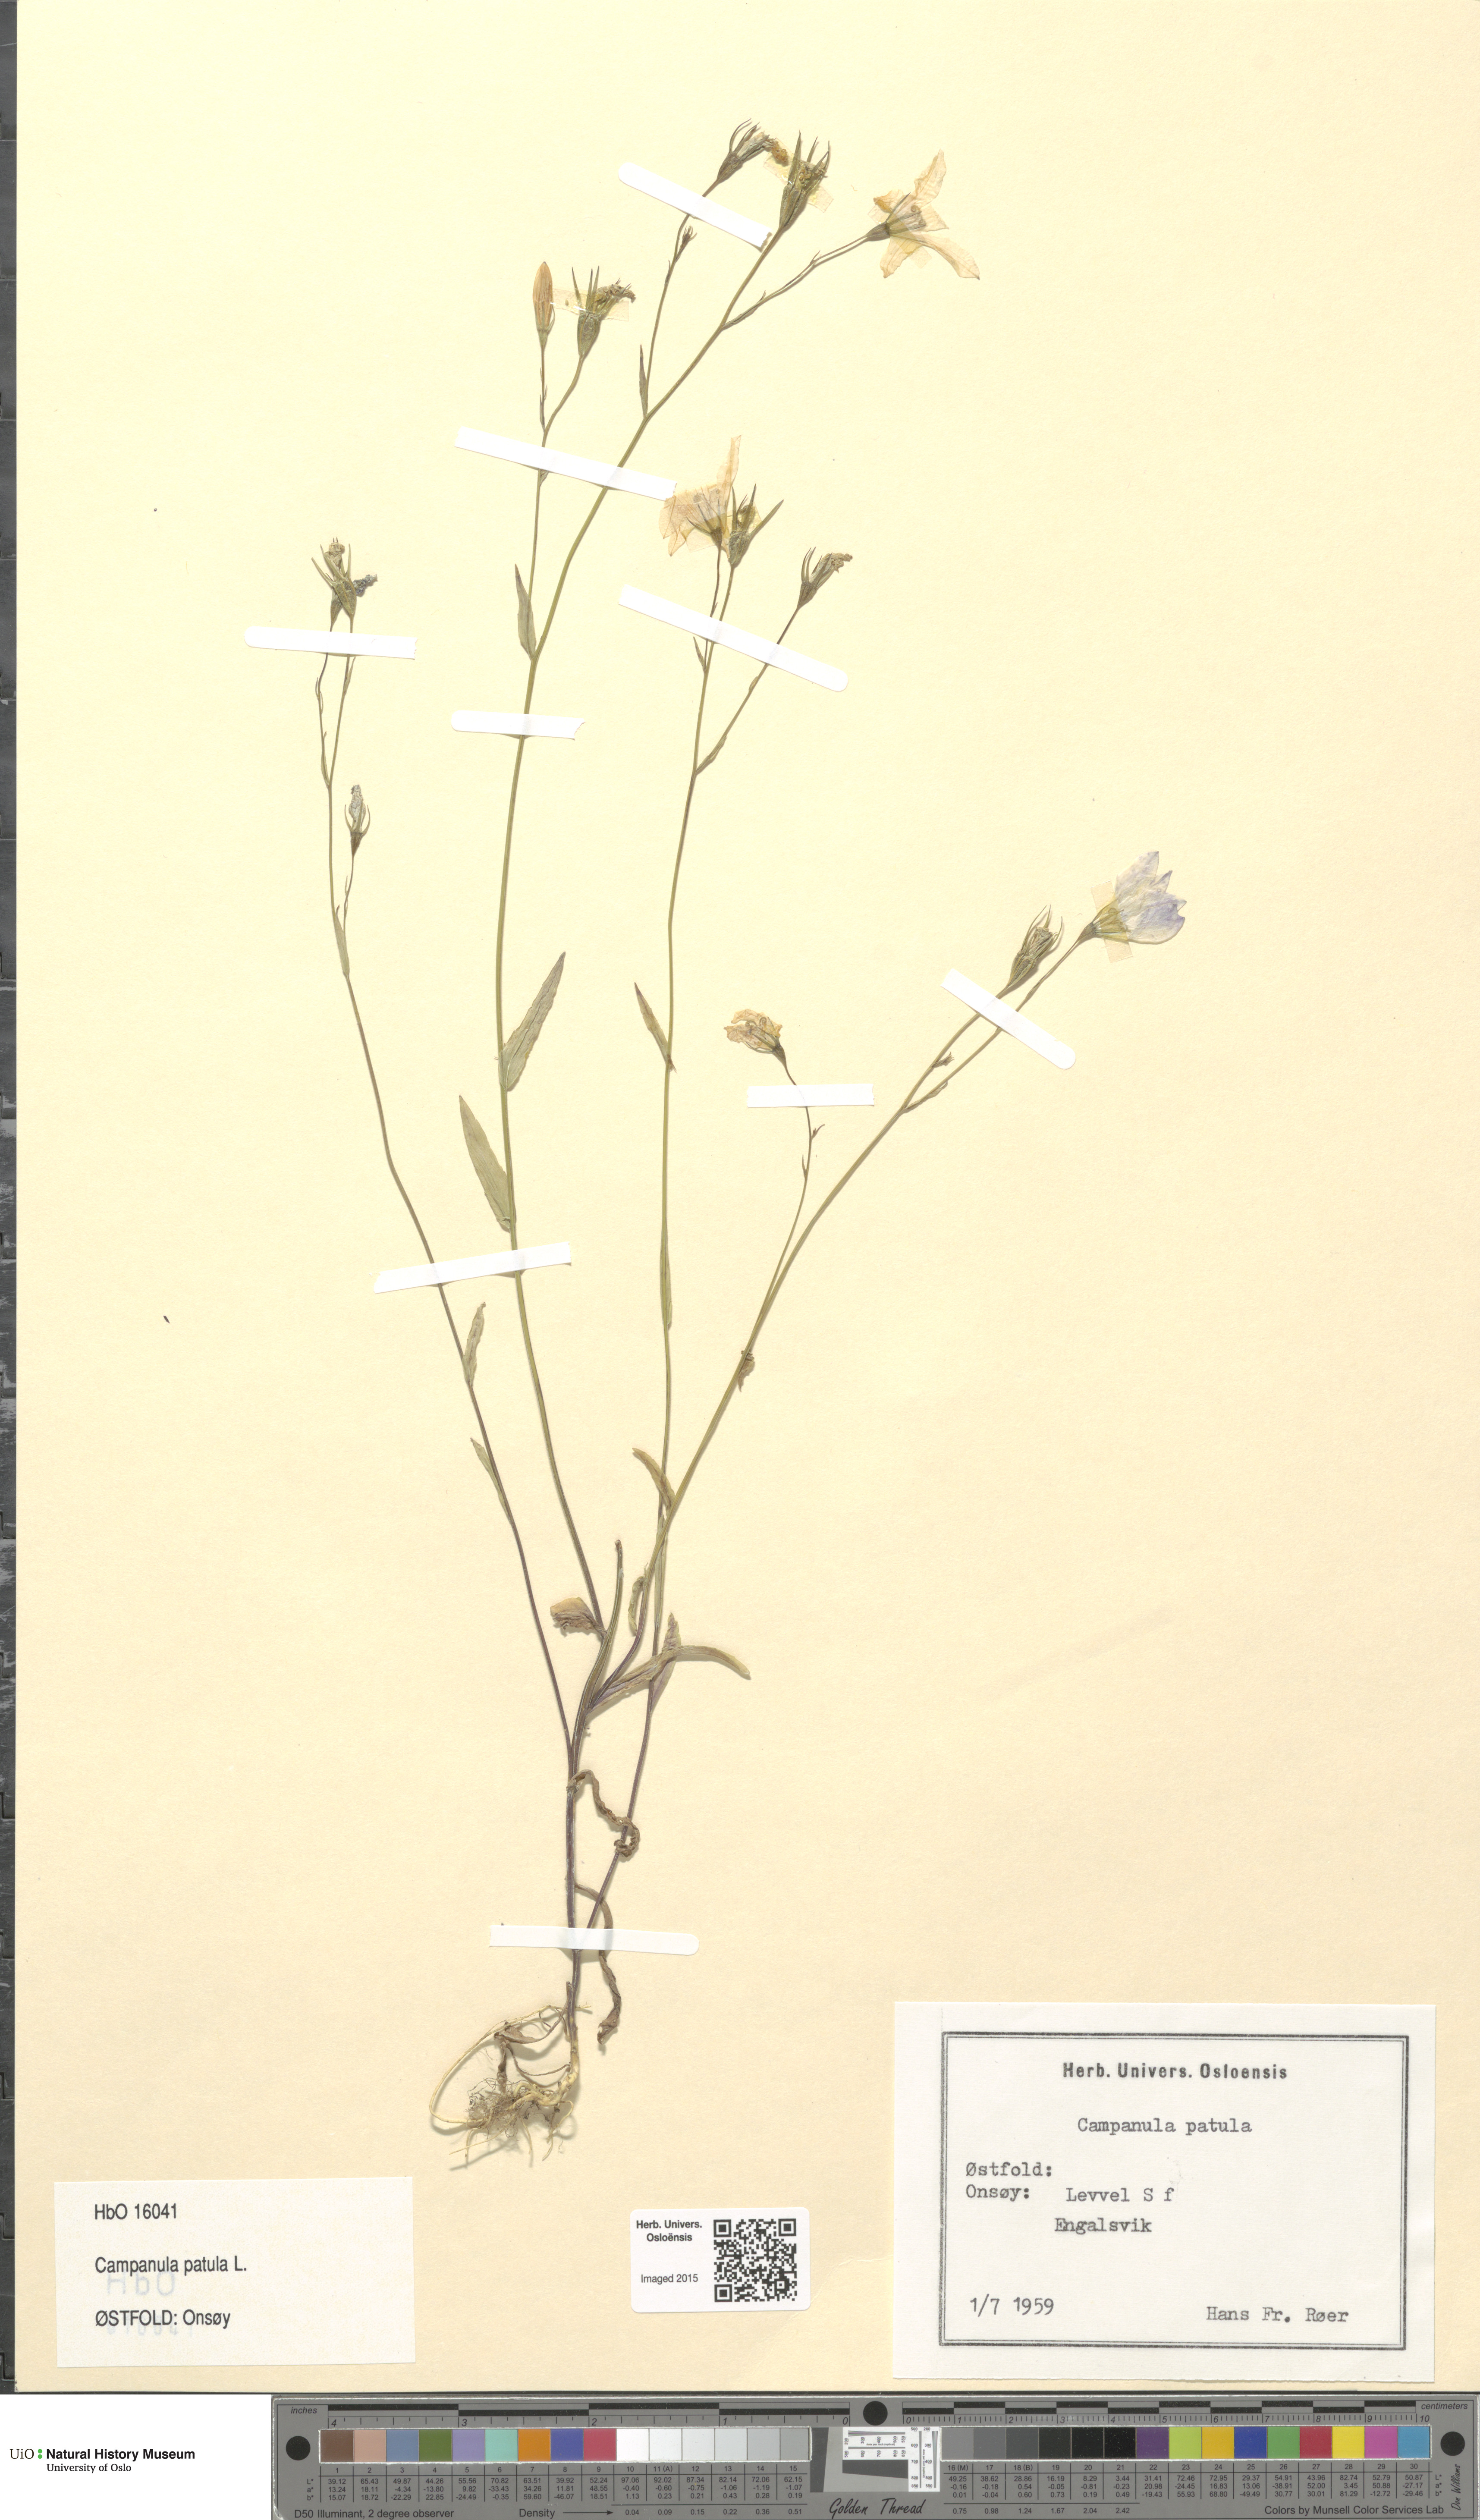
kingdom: Plantae
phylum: Tracheophyta
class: Magnoliopsida
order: Asterales
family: Campanulaceae
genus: Campanula
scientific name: Campanula patula
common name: Spreading bellflower
